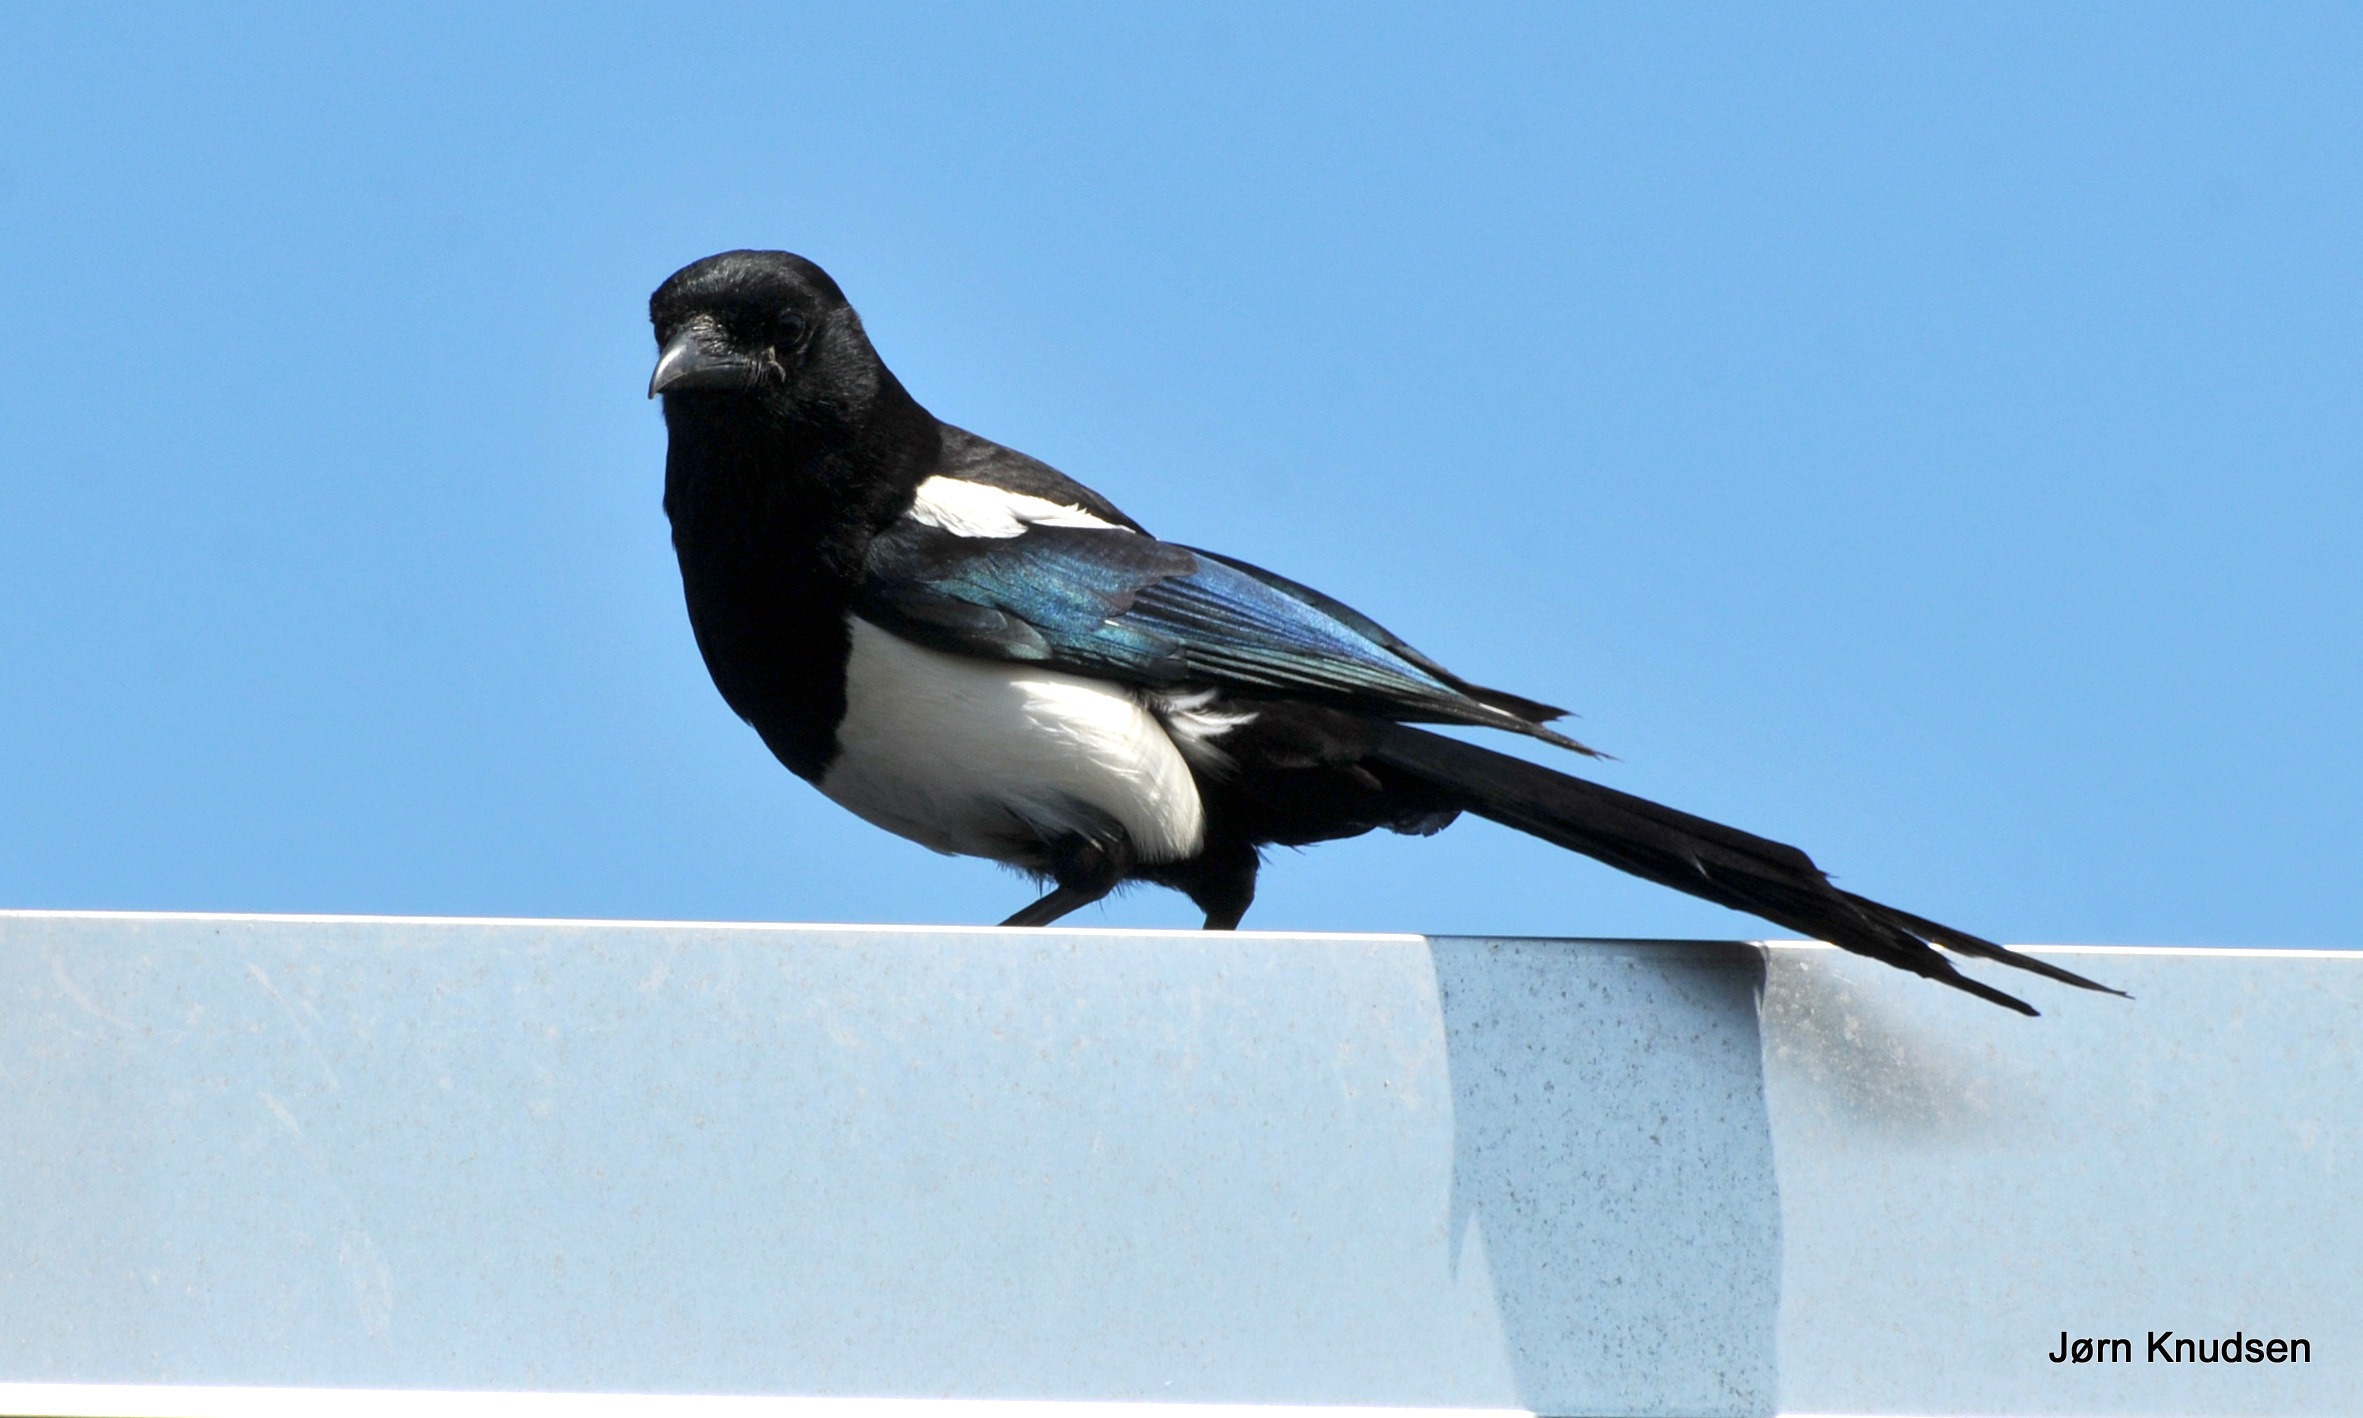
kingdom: Animalia
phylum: Chordata
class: Aves
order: Passeriformes
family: Corvidae
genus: Pica
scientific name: Pica pica
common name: Husskade
